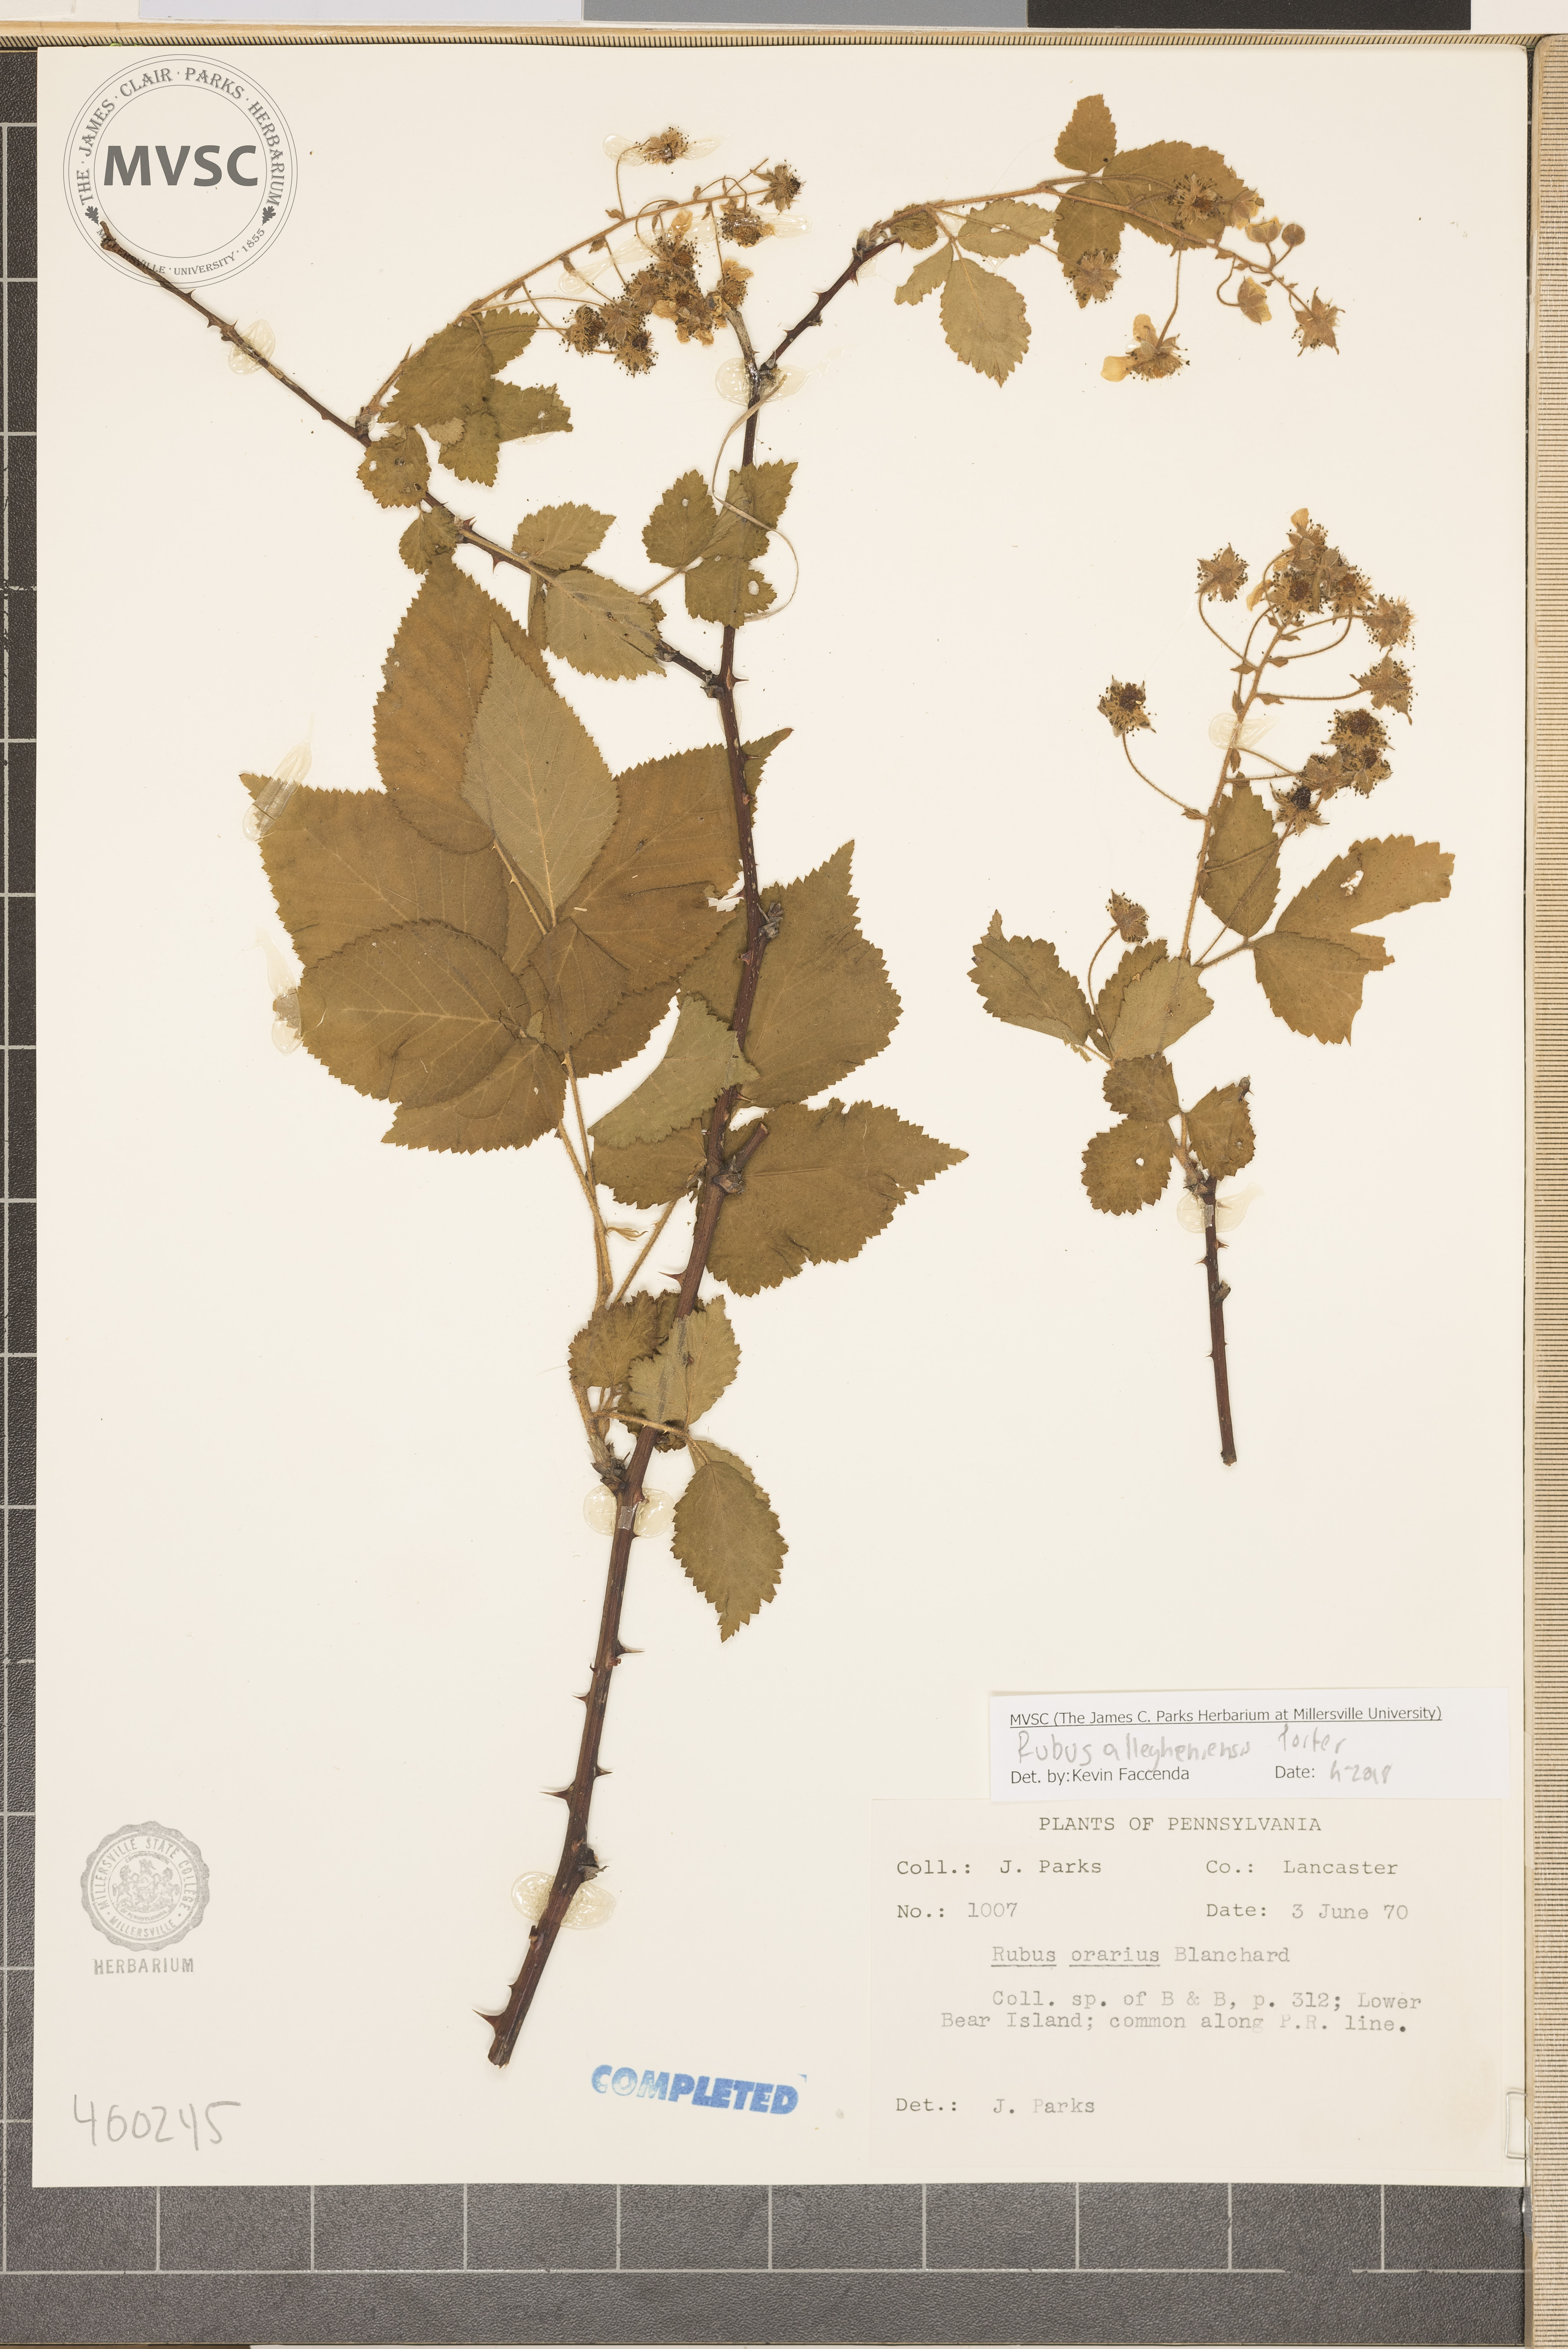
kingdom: Plantae
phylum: Tracheophyta
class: Magnoliopsida
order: Rosales
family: Rosaceae
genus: Rubus
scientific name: Rubus allegheniensis
